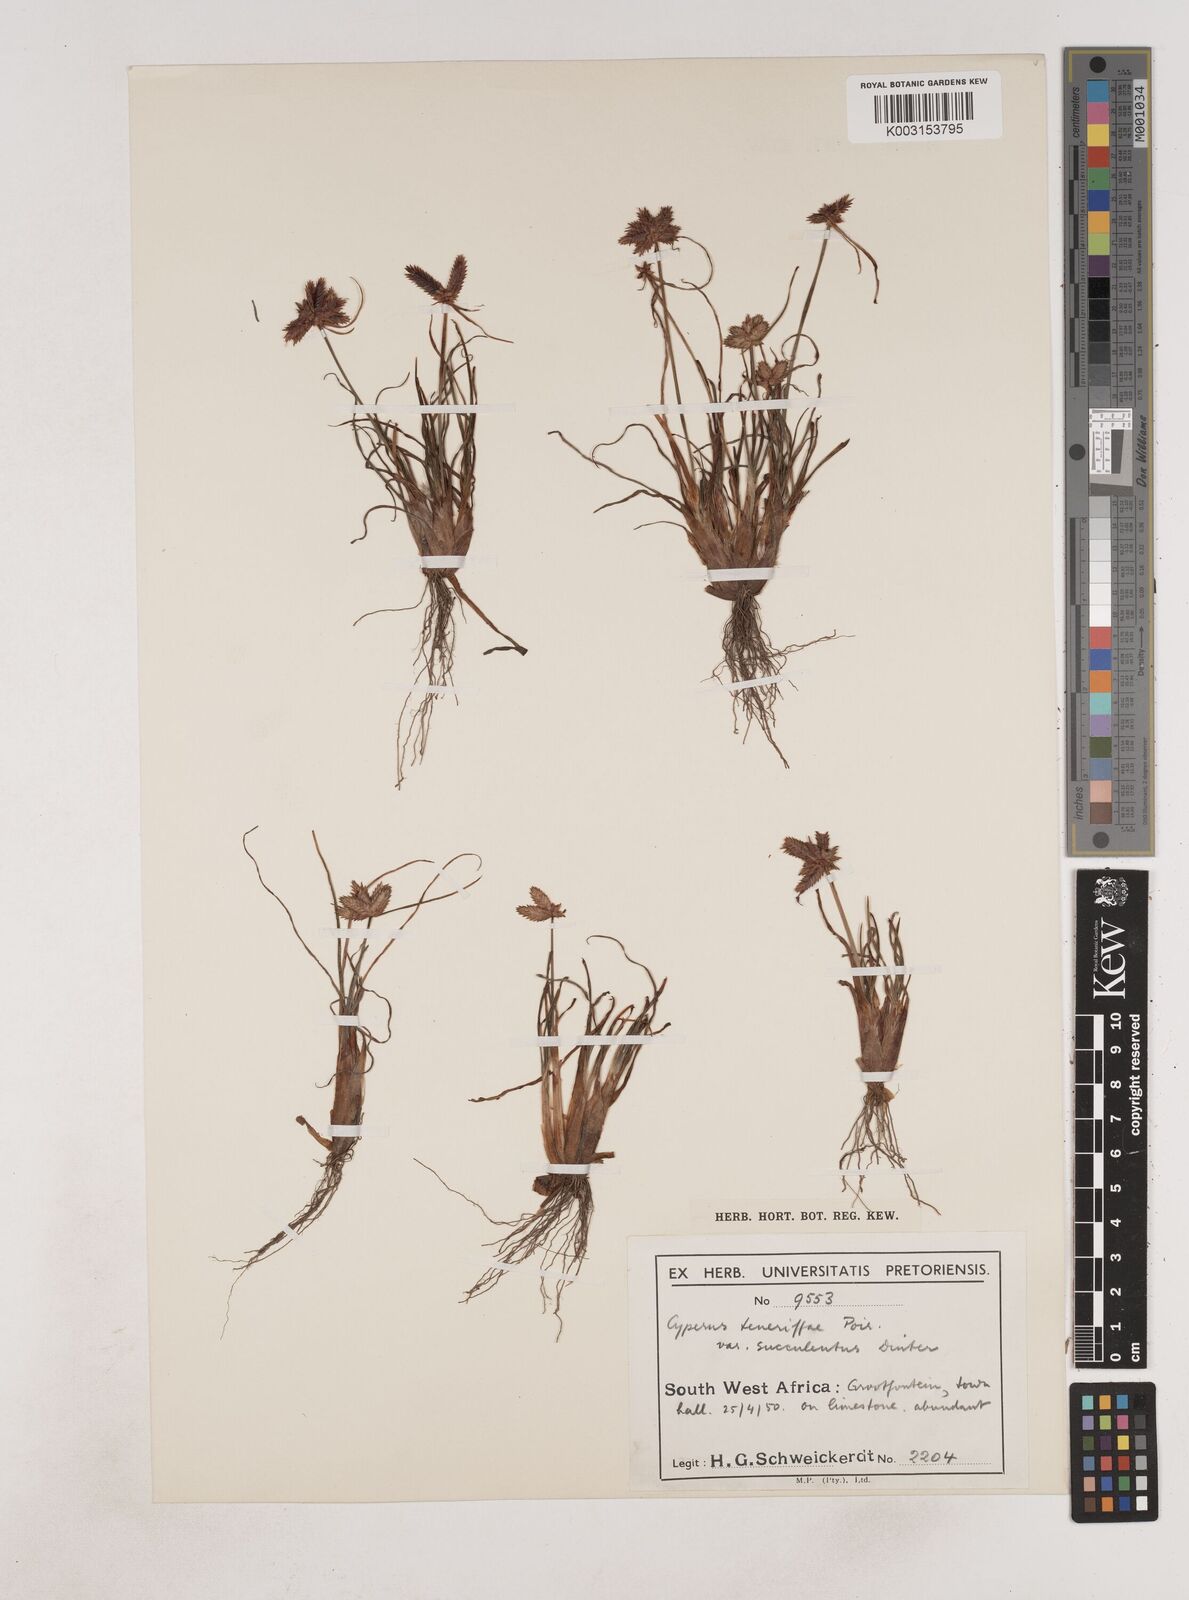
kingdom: Plantae
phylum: Tracheophyta
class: Liliopsida
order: Poales
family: Cyperaceae
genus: Cyperus
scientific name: Cyperus rubicundus
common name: Coco-grass
